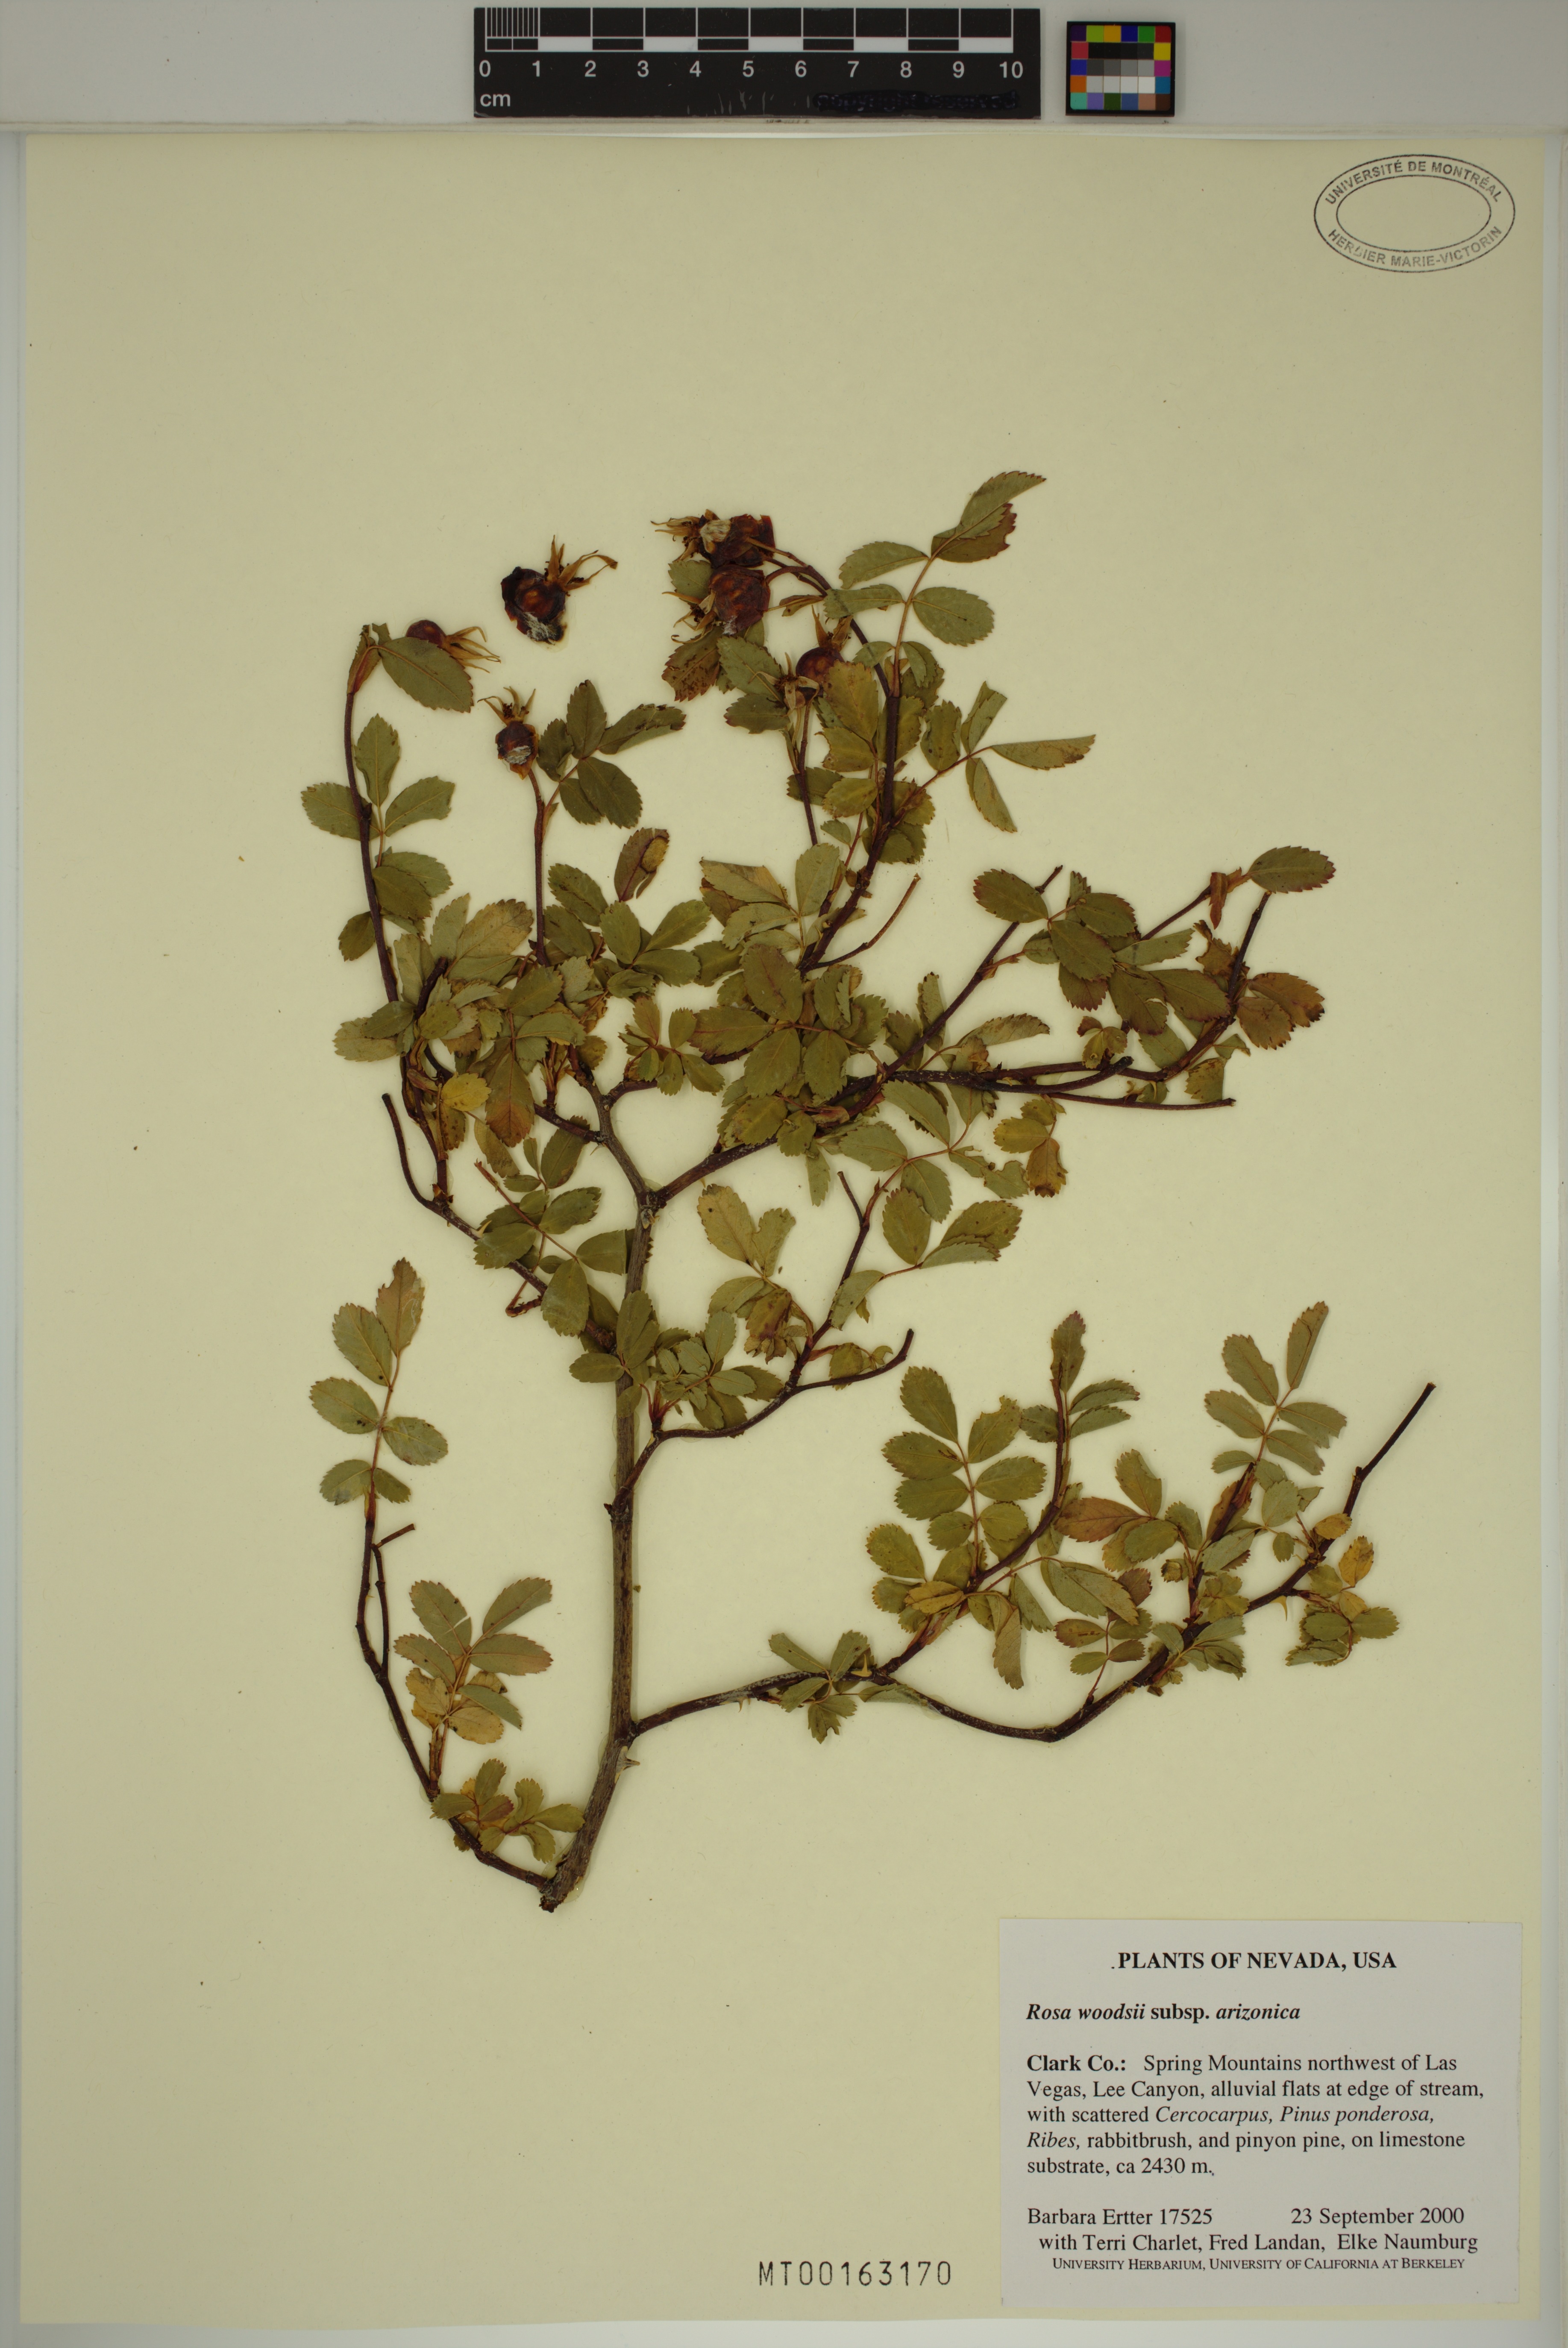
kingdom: Plantae
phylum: Tracheophyta
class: Magnoliopsida
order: Rosales
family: Rosaceae
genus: Rosa
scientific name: Rosa woodsii
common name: Woods's rose
